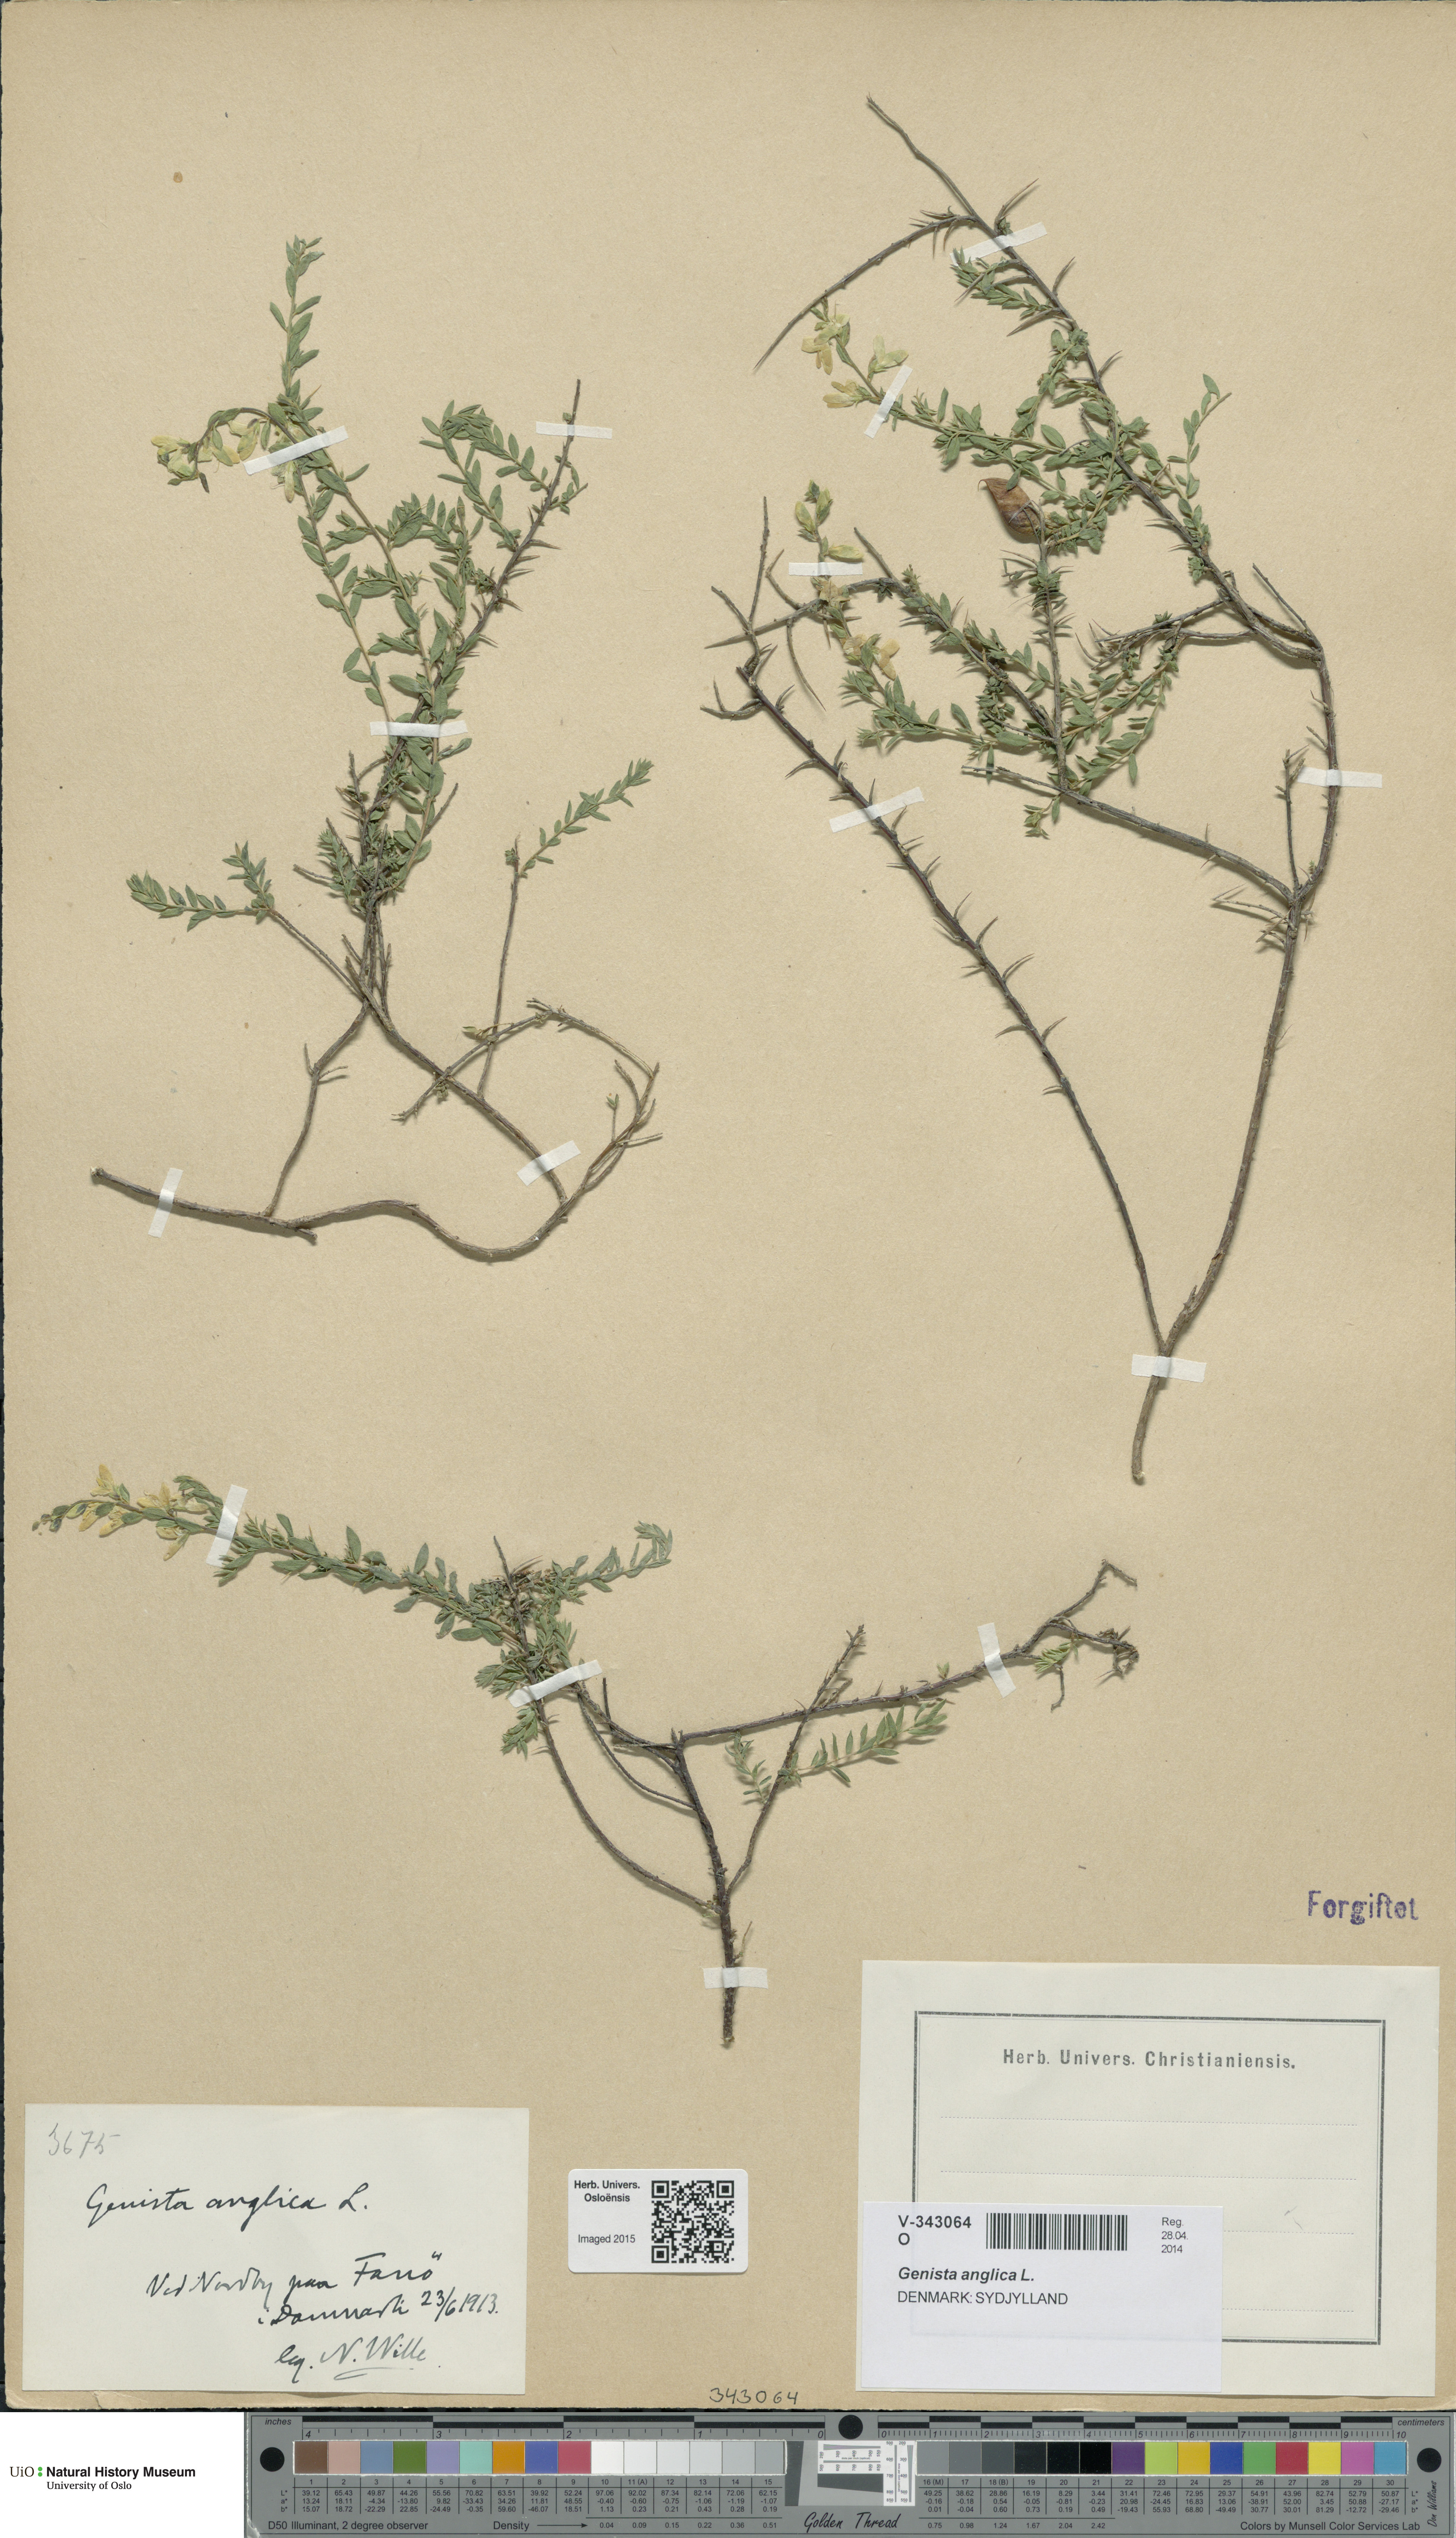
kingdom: Plantae
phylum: Tracheophyta
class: Magnoliopsida
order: Fabales
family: Fabaceae
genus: Genista
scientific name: Genista anglica
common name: Petty whin
